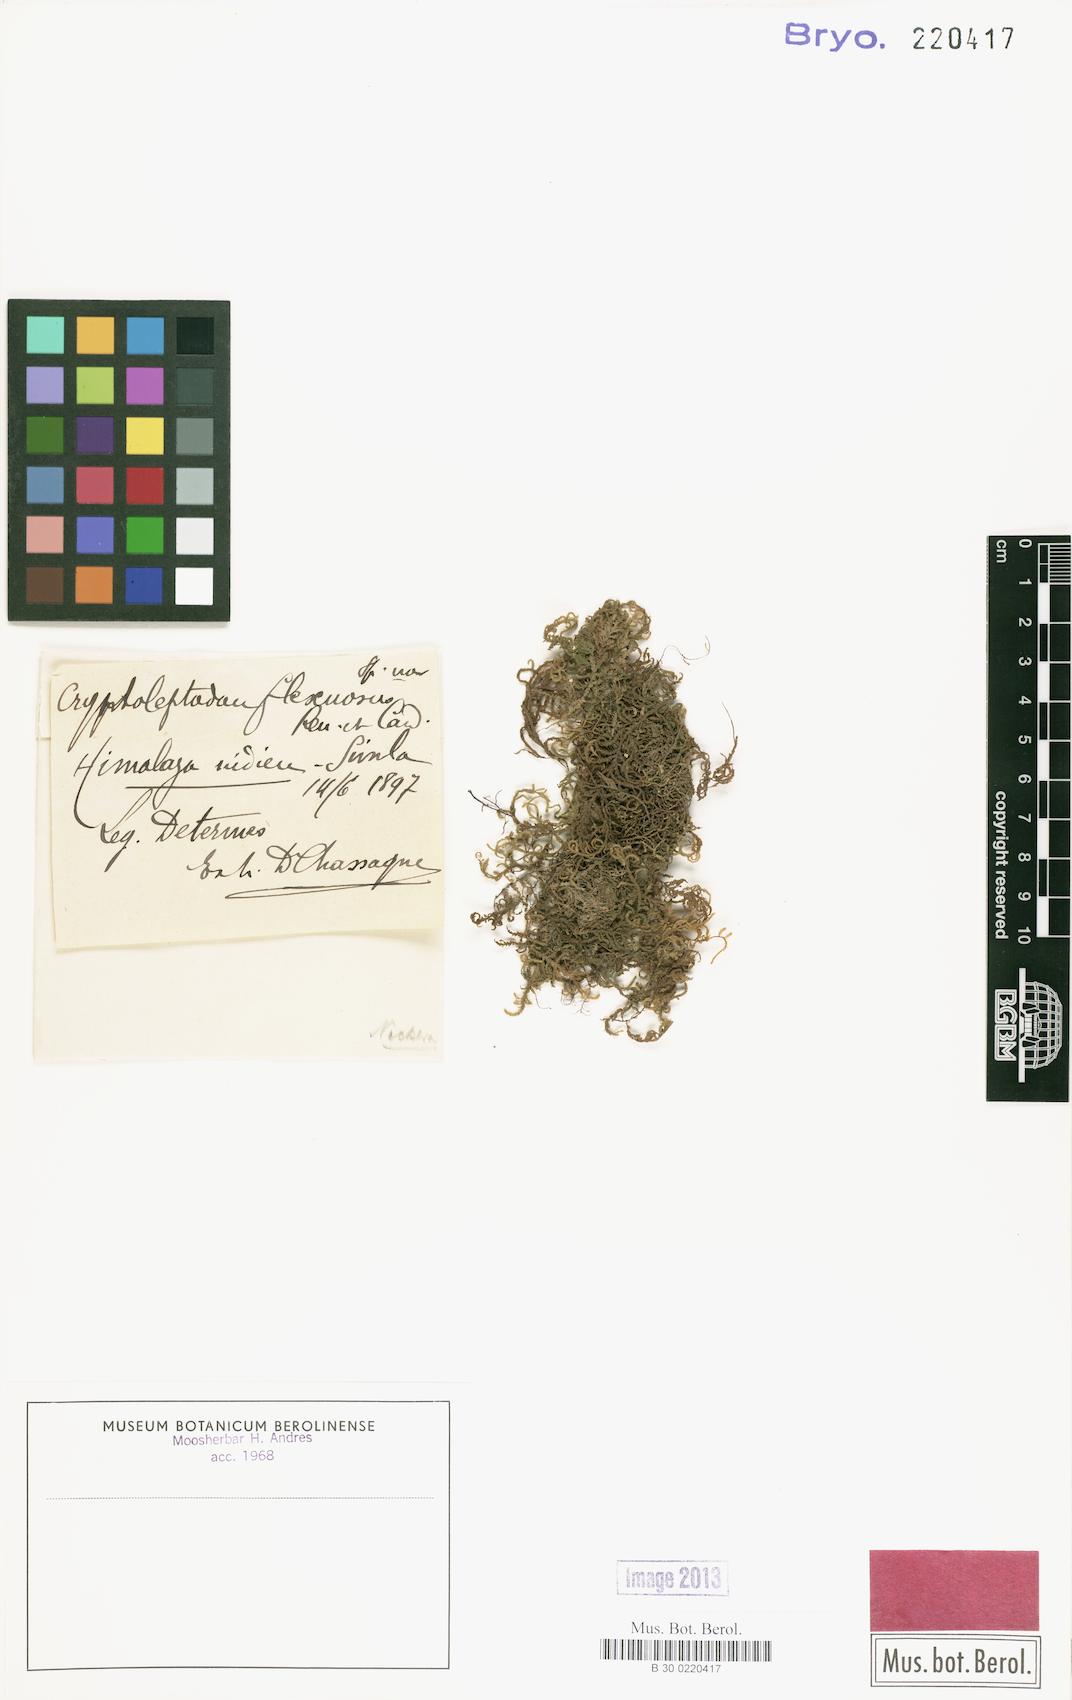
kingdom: Plantae
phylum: Bryophyta
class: Bryopsida
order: Hypnales
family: Neckeraceae
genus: Leptodon
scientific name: Leptodon pluvinii
